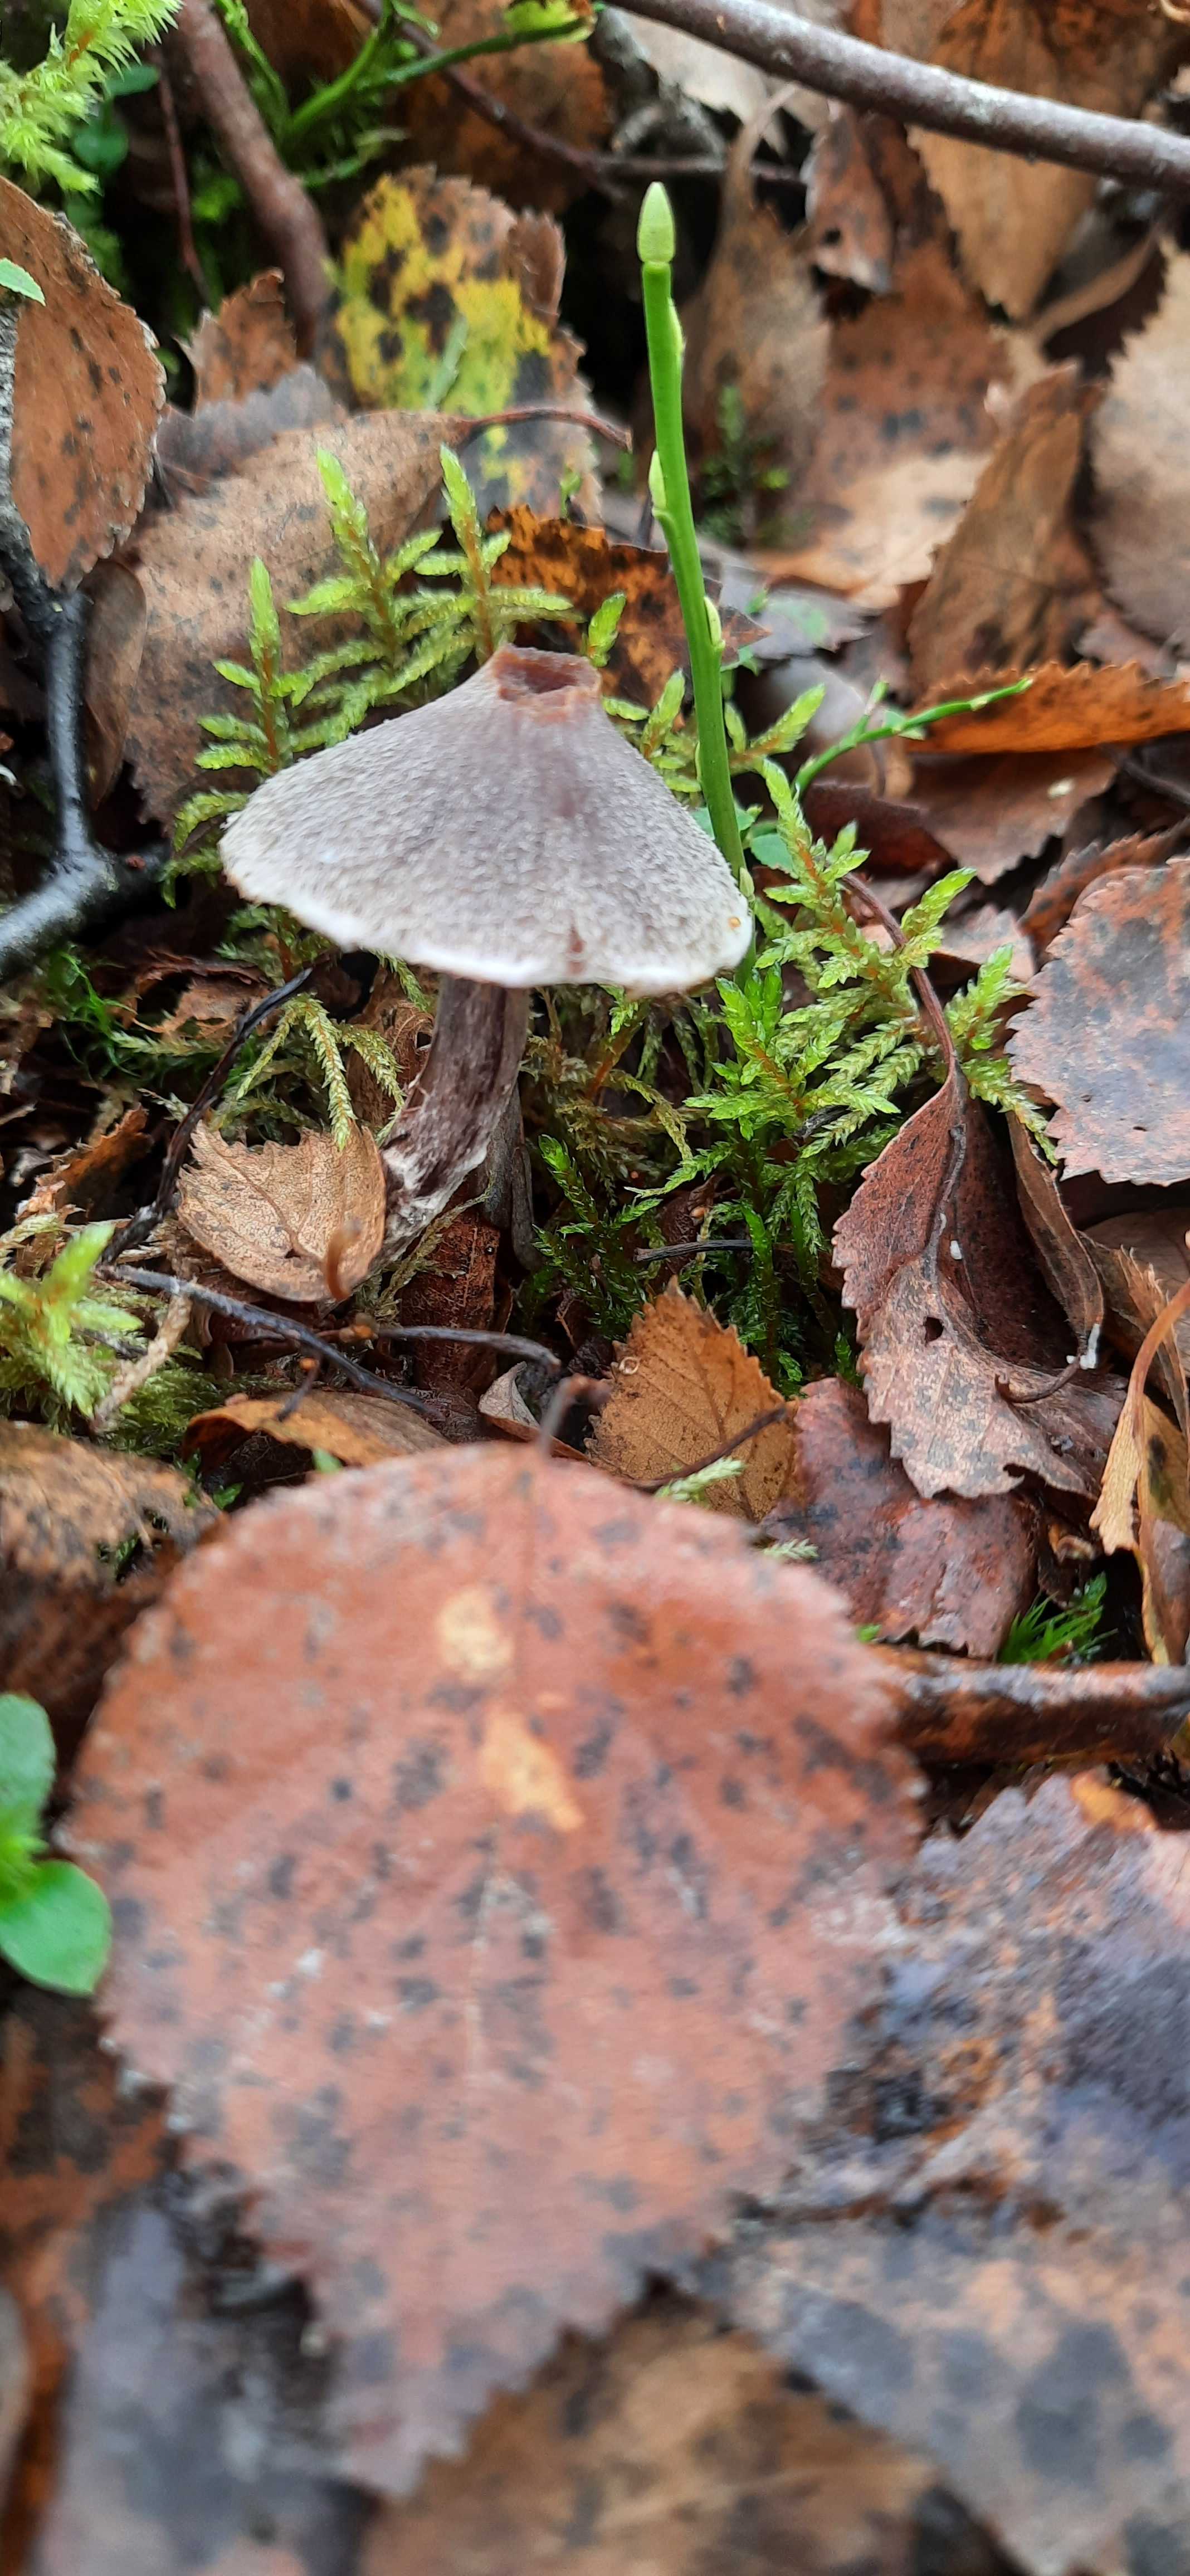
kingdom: Fungi
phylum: Basidiomycota
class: Agaricomycetes
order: Agaricales
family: Cortinariaceae
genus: Cortinarius
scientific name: Cortinarius flabellus
